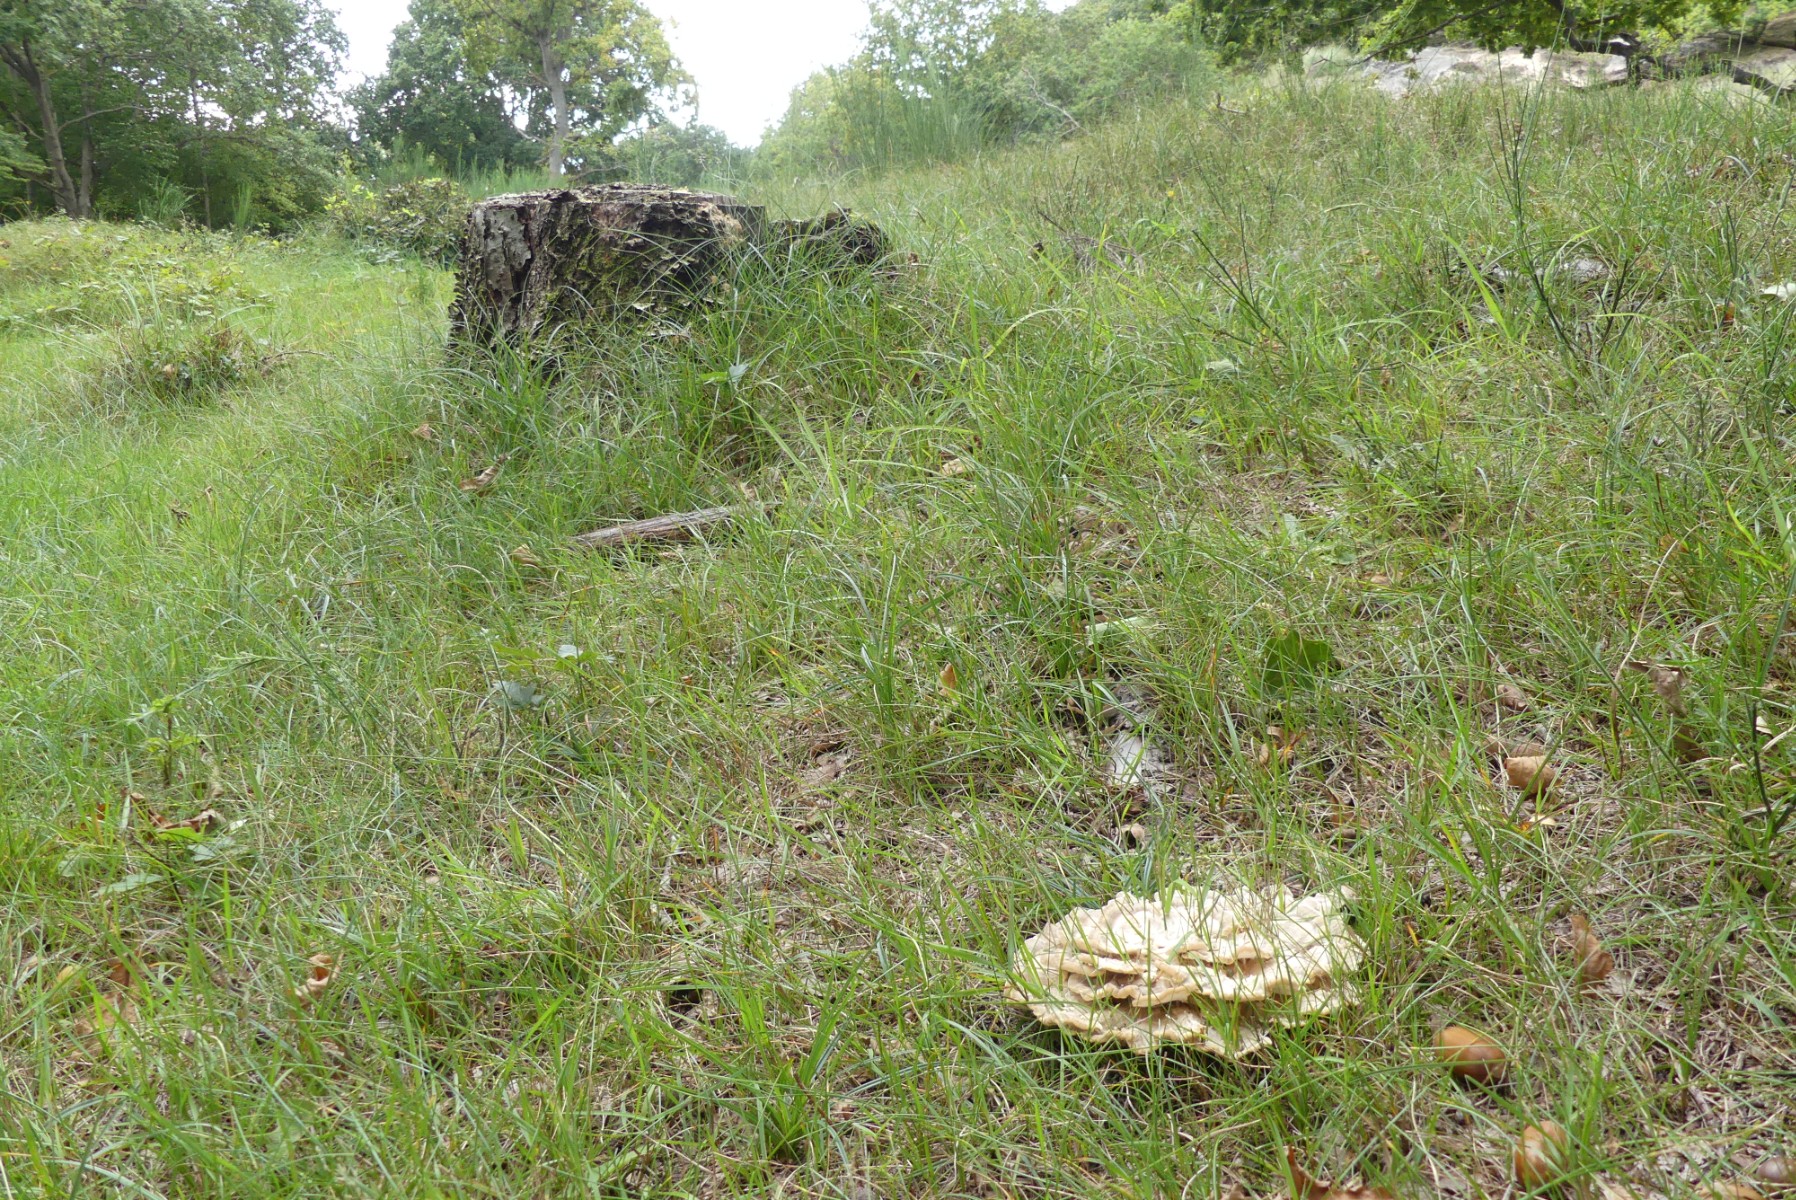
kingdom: Fungi
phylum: Basidiomycota
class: Agaricomycetes
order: Polyporales
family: Meripilaceae
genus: Meripilus
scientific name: Meripilus giganteus
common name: kæmpeporesvamp
